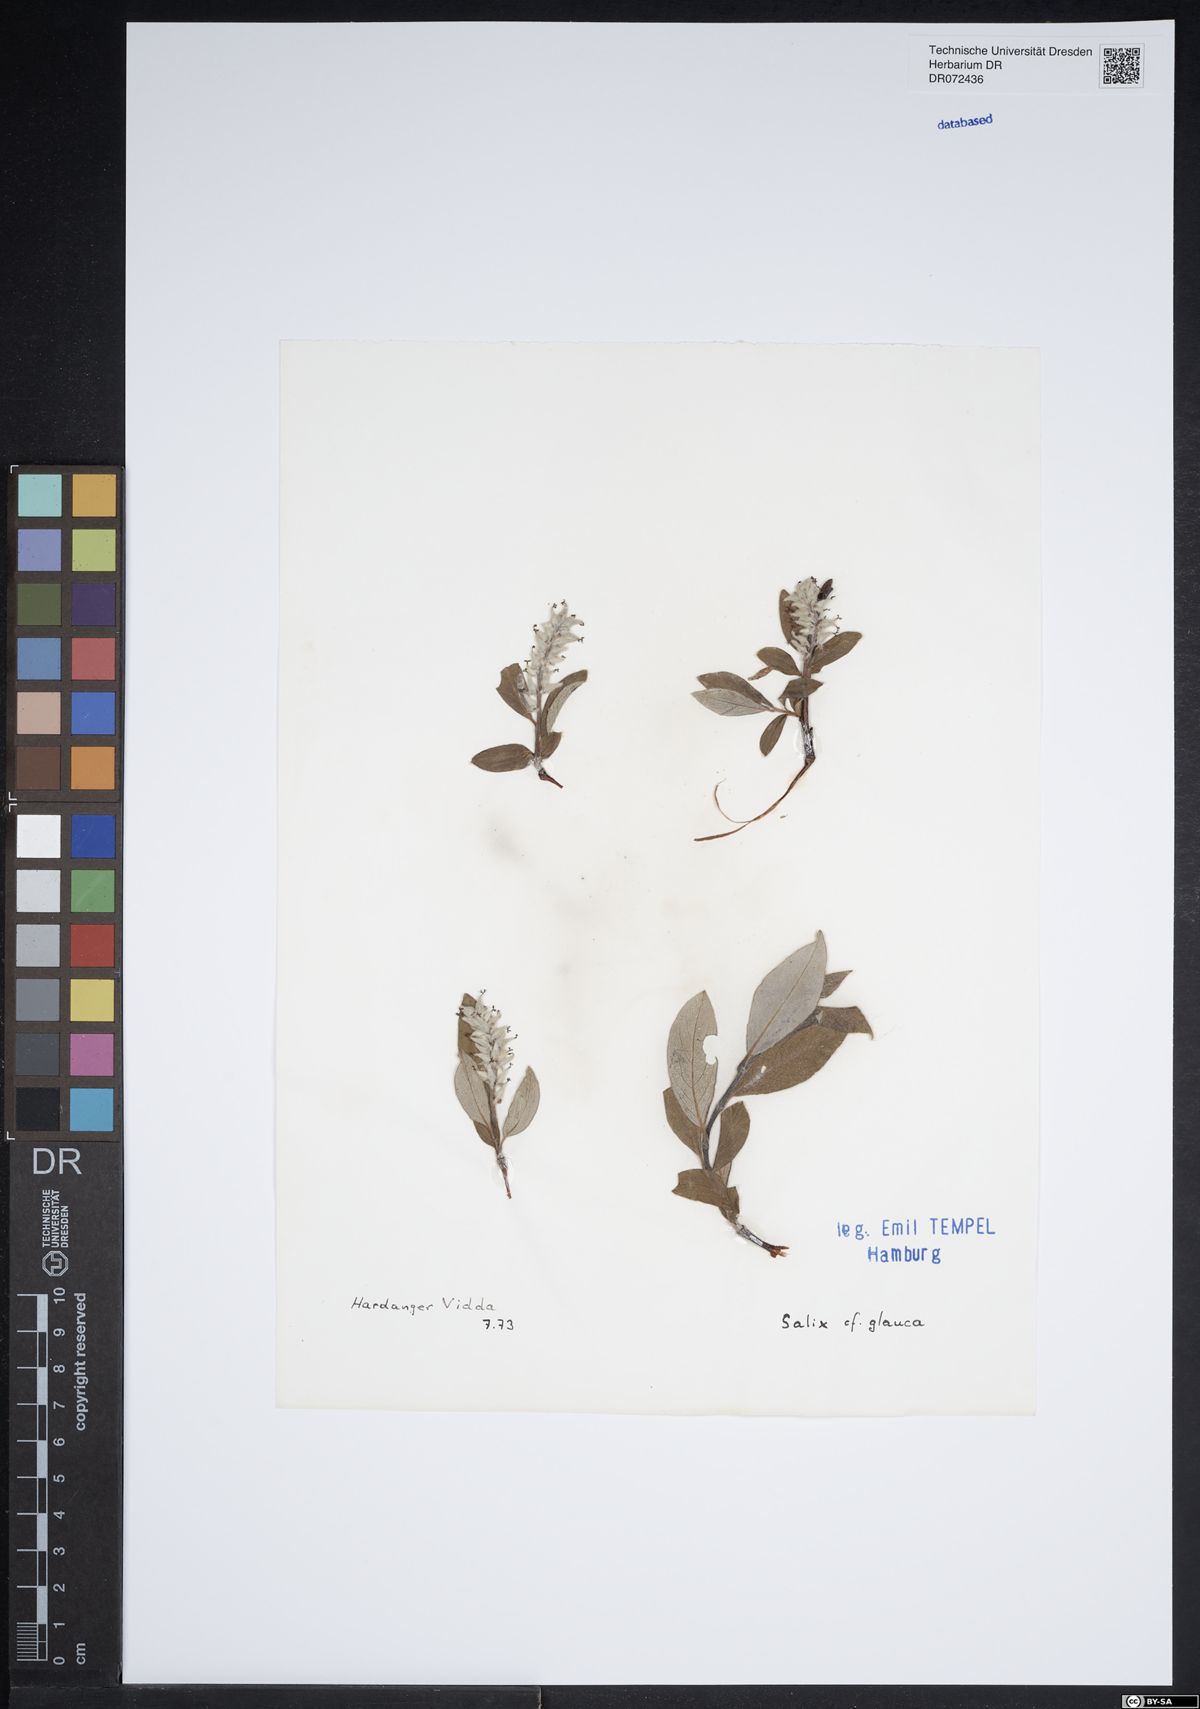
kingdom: Plantae
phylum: Tracheophyta
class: Magnoliopsida
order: Malpighiales
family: Salicaceae
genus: Salix
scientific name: Salix glauca
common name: Glaucous willow
